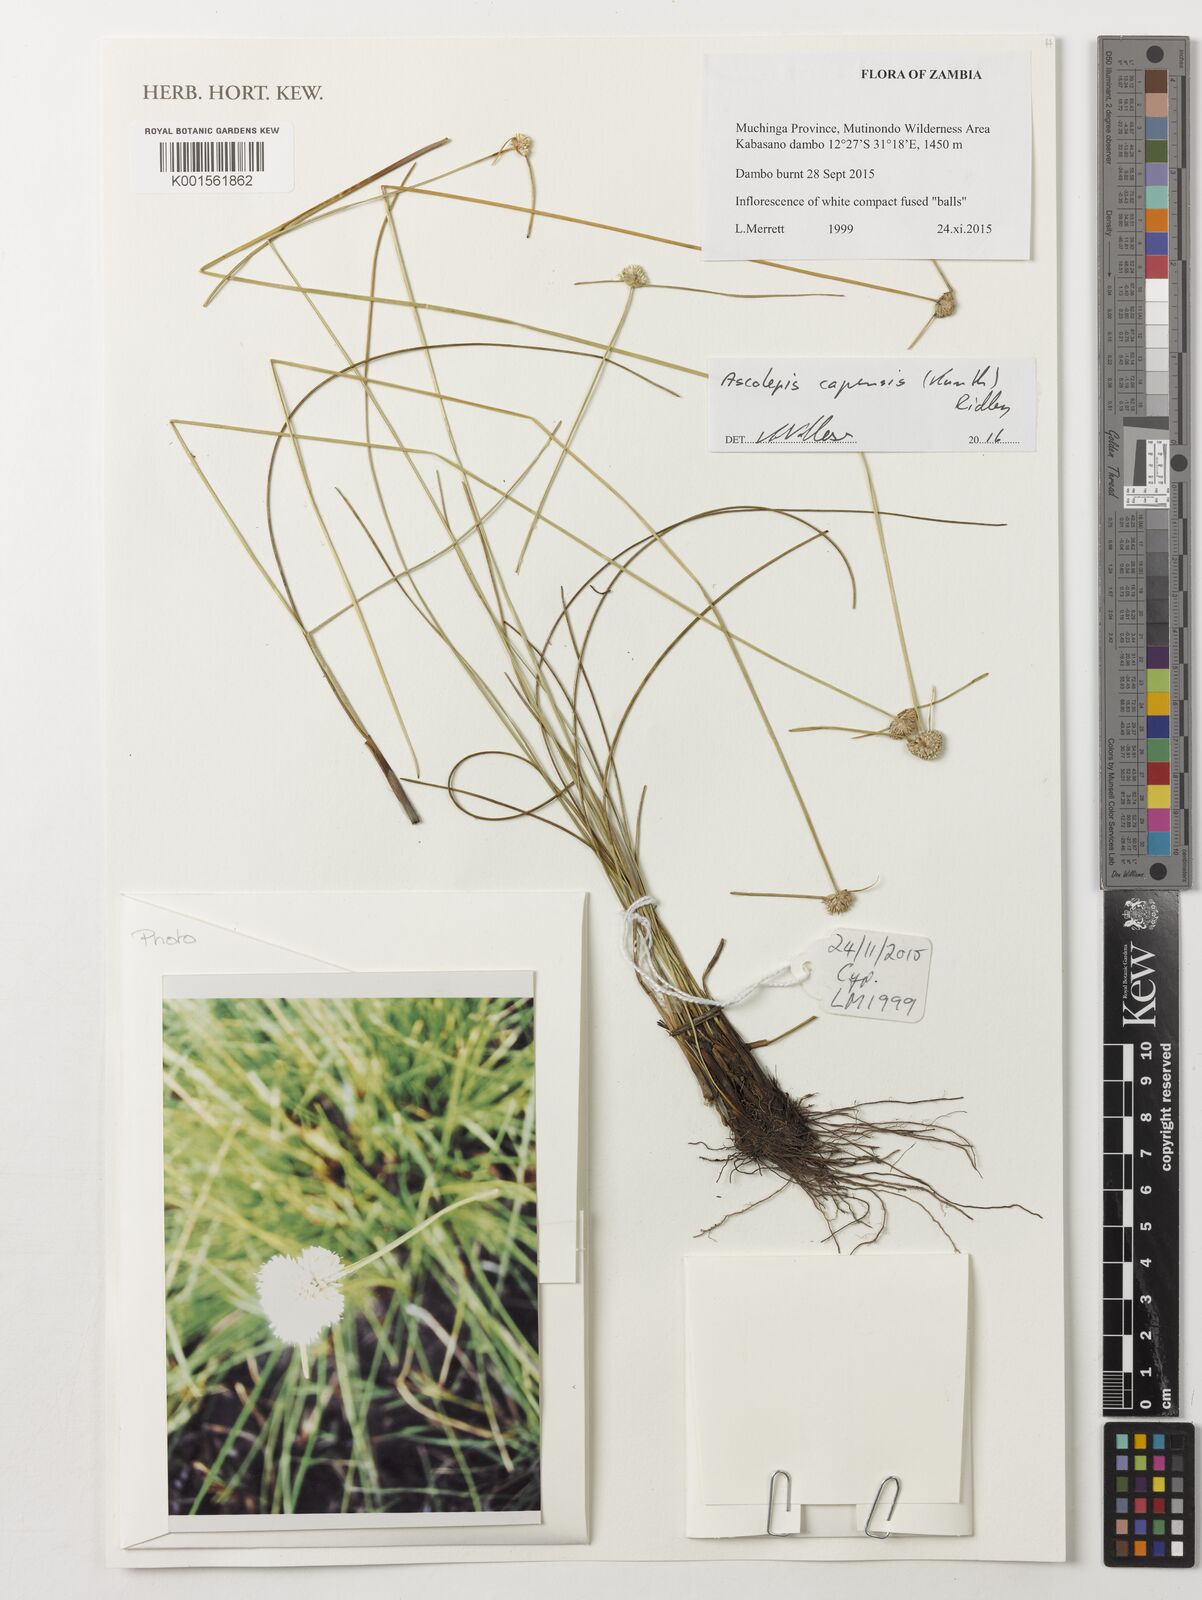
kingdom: Plantae
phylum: Tracheophyta
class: Liliopsida
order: Poales
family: Cyperaceae
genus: Cyperus
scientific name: Cyperus ascocapensis
